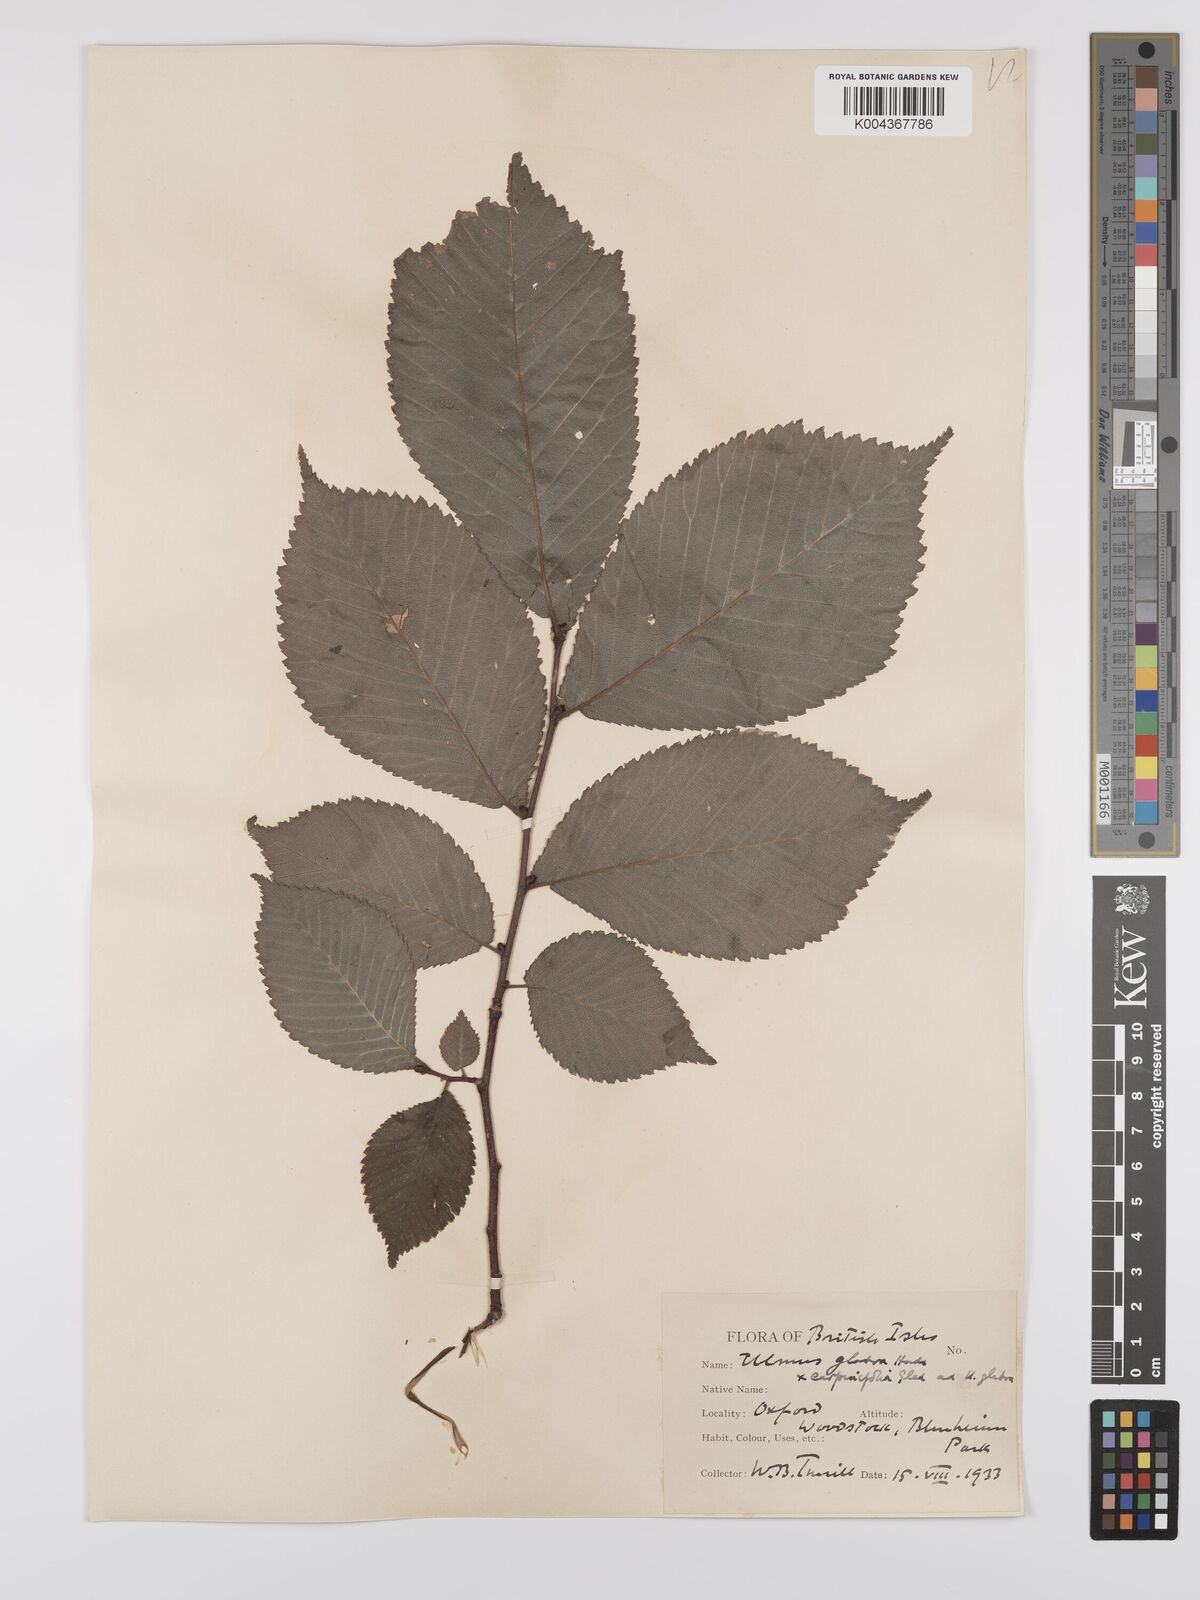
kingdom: Plantae
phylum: Tracheophyta
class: Magnoliopsida
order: Rosales
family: Ulmaceae
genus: Ulmus
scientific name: Ulmus glabra
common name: Wych elm
